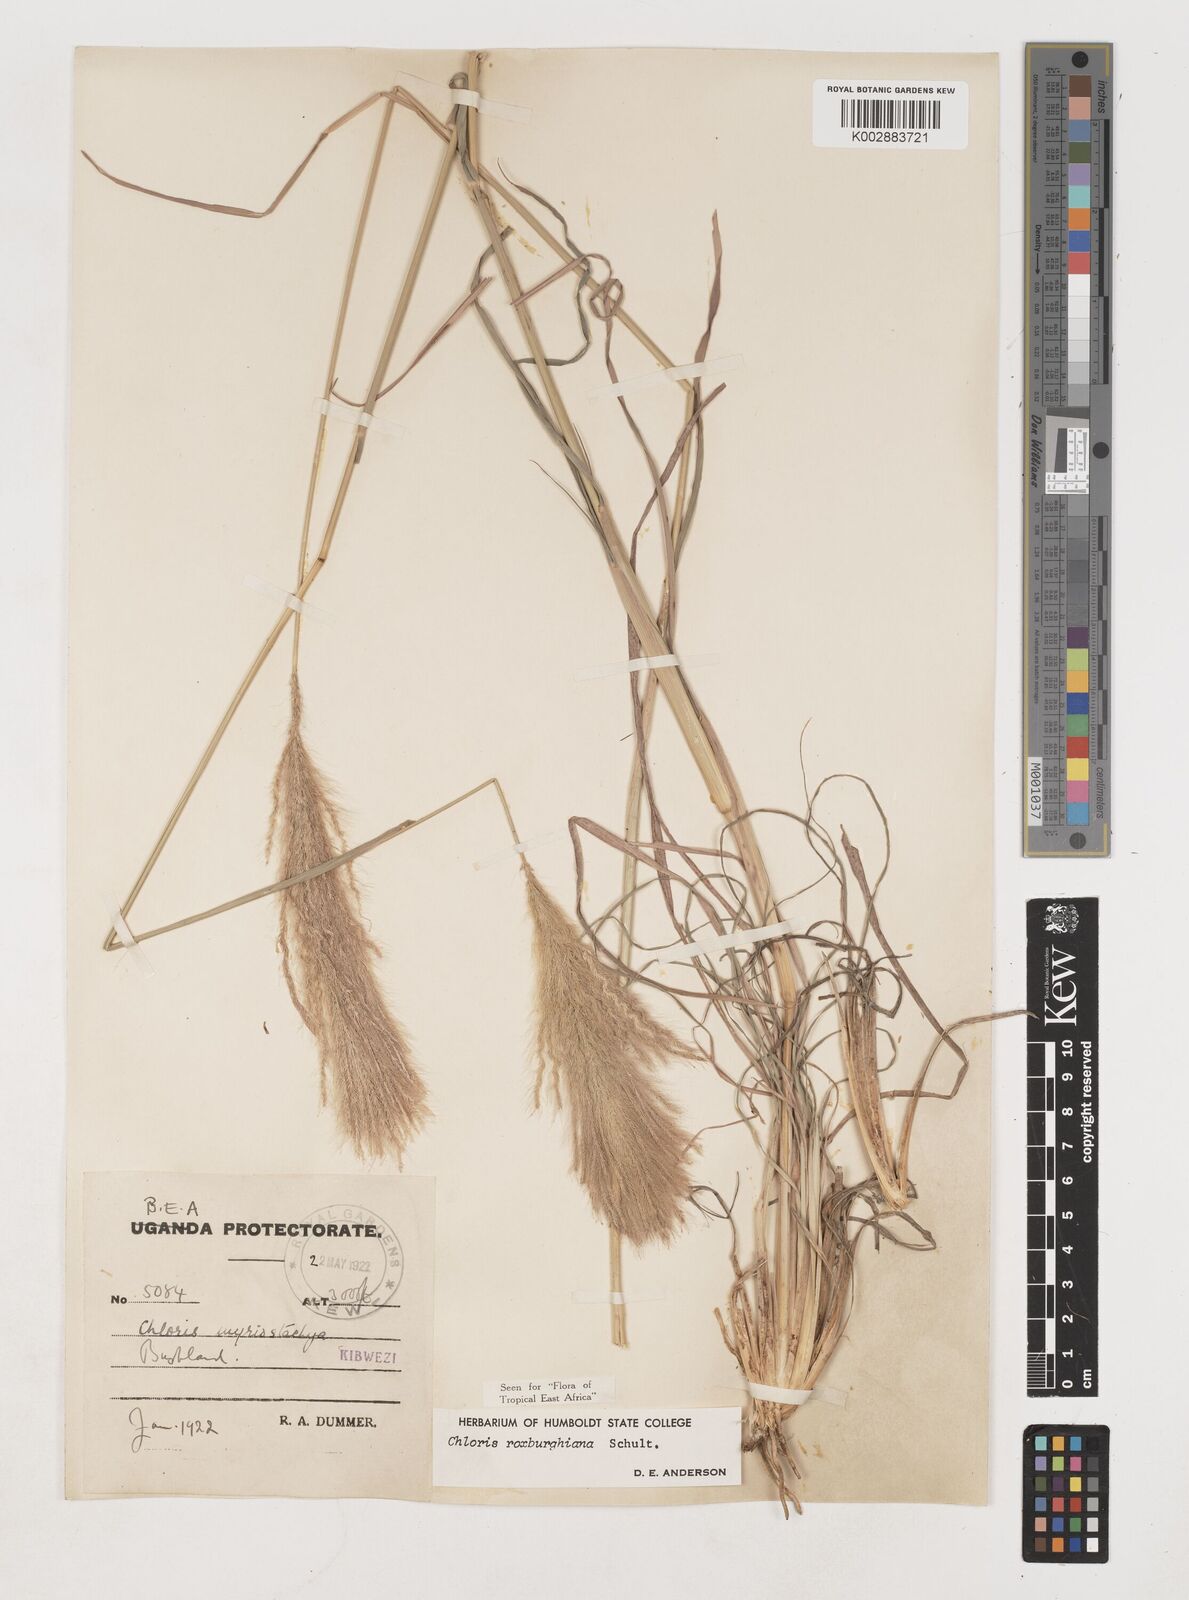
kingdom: Plantae
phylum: Tracheophyta
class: Liliopsida
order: Poales
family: Poaceae
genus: Tetrapogon
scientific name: Tetrapogon roxburghiana
